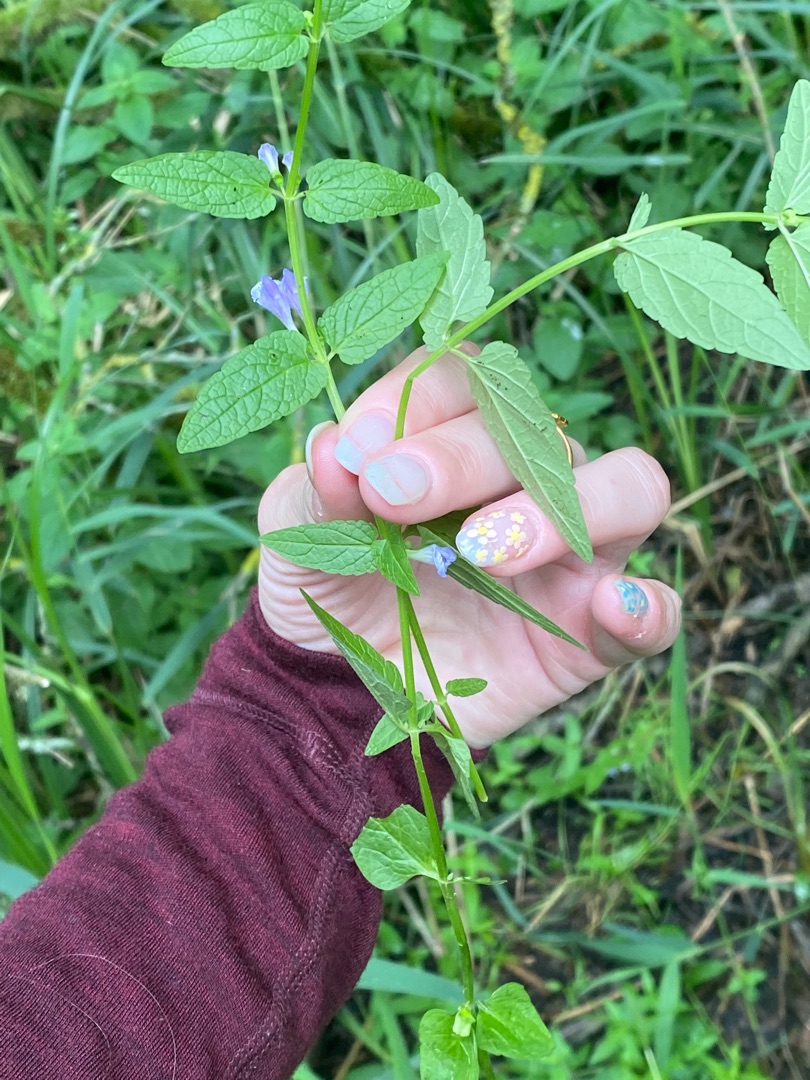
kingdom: Plantae
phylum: Tracheophyta
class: Magnoliopsida
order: Lamiales
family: Lamiaceae
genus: Scutellaria
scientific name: Scutellaria galericulata
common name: Almindelig skjolddrager
